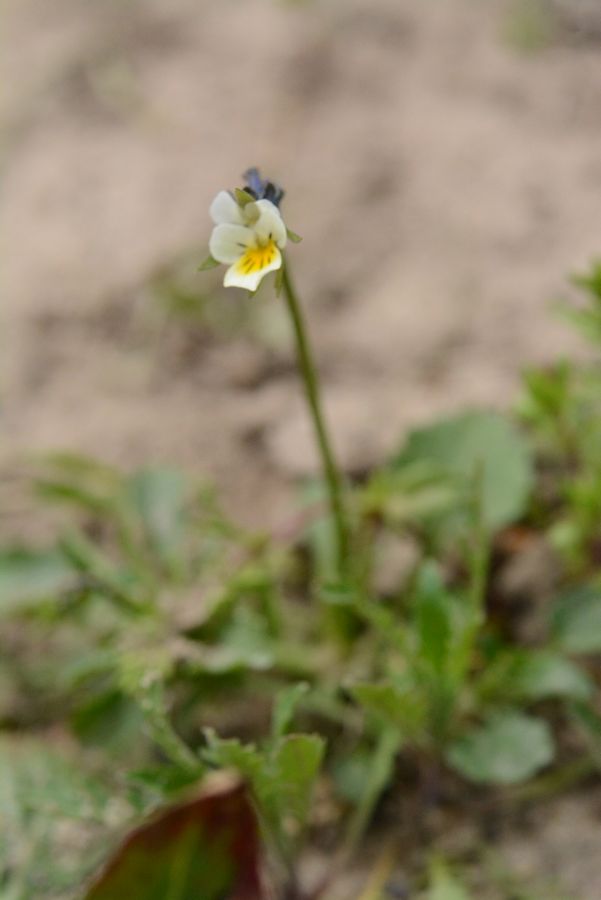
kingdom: Plantae
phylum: Tracheophyta
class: Magnoliopsida
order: Malpighiales
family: Violaceae
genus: Viola
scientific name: Viola arvensis
